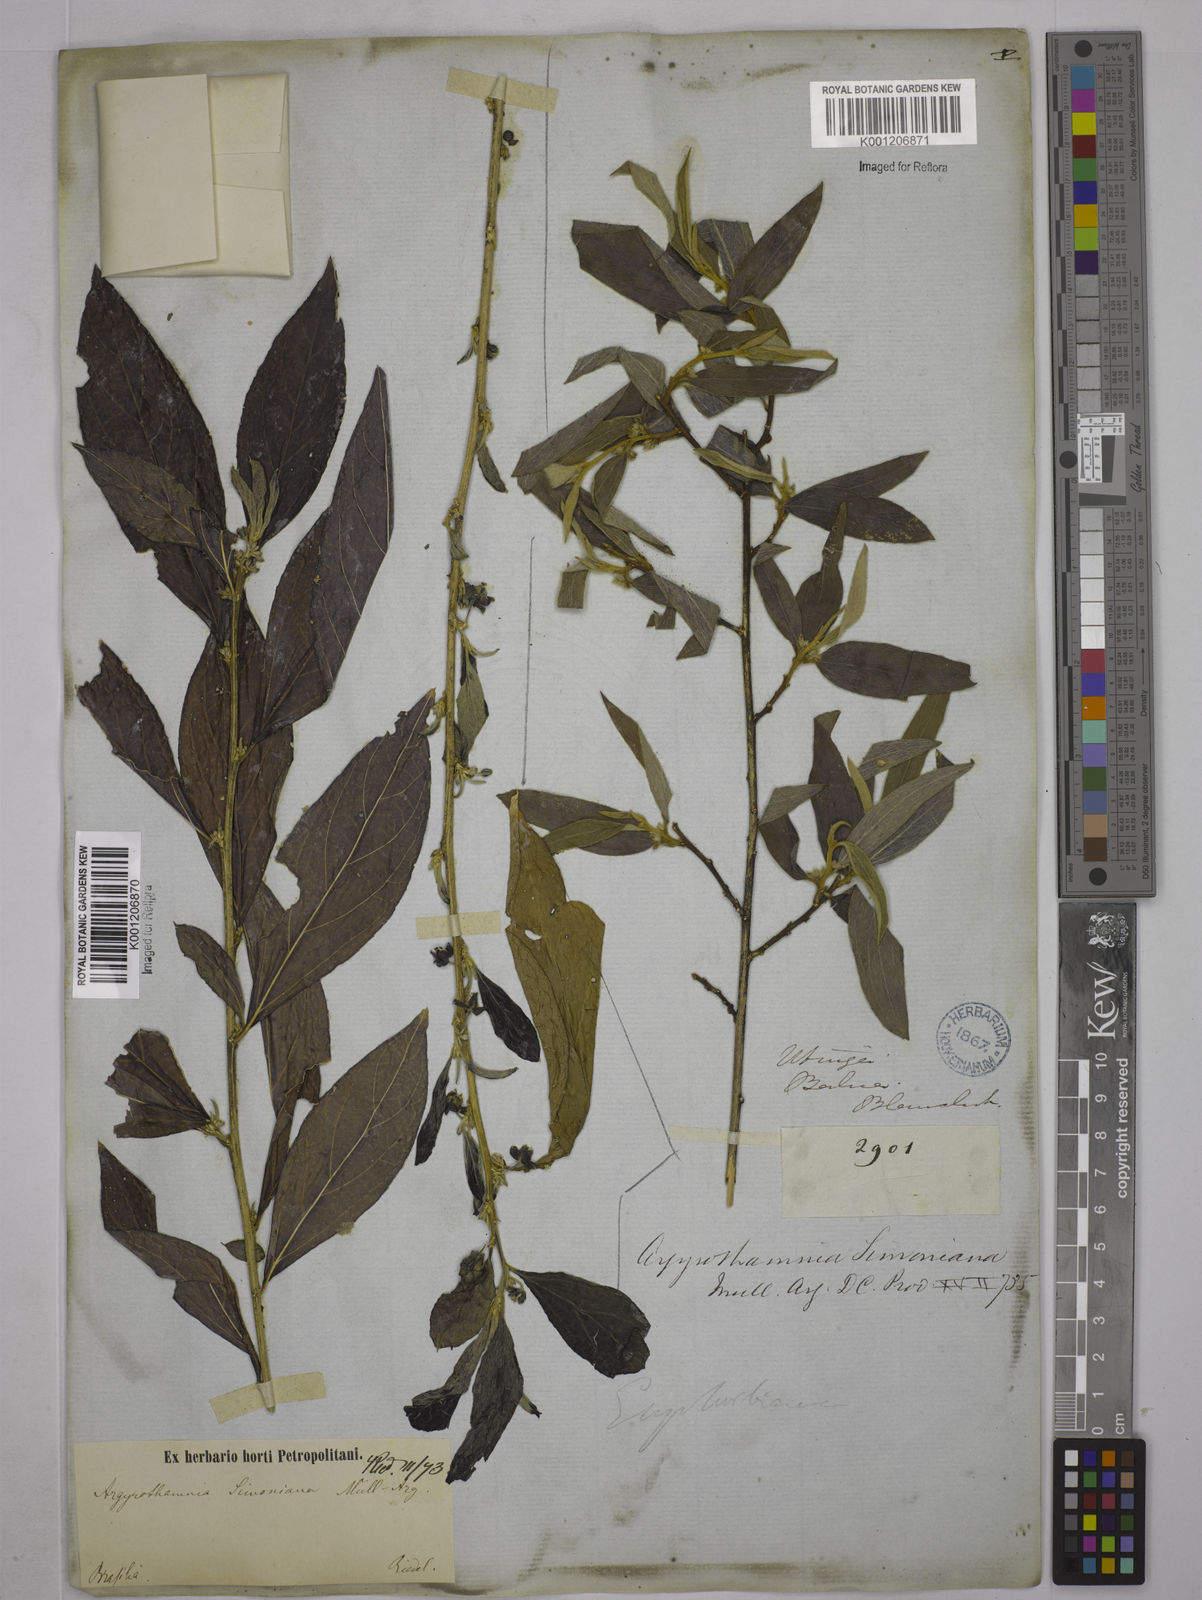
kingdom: Plantae
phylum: Tracheophyta
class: Magnoliopsida
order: Malpighiales
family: Euphorbiaceae
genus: Ditaxis
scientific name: Ditaxis simoniana
